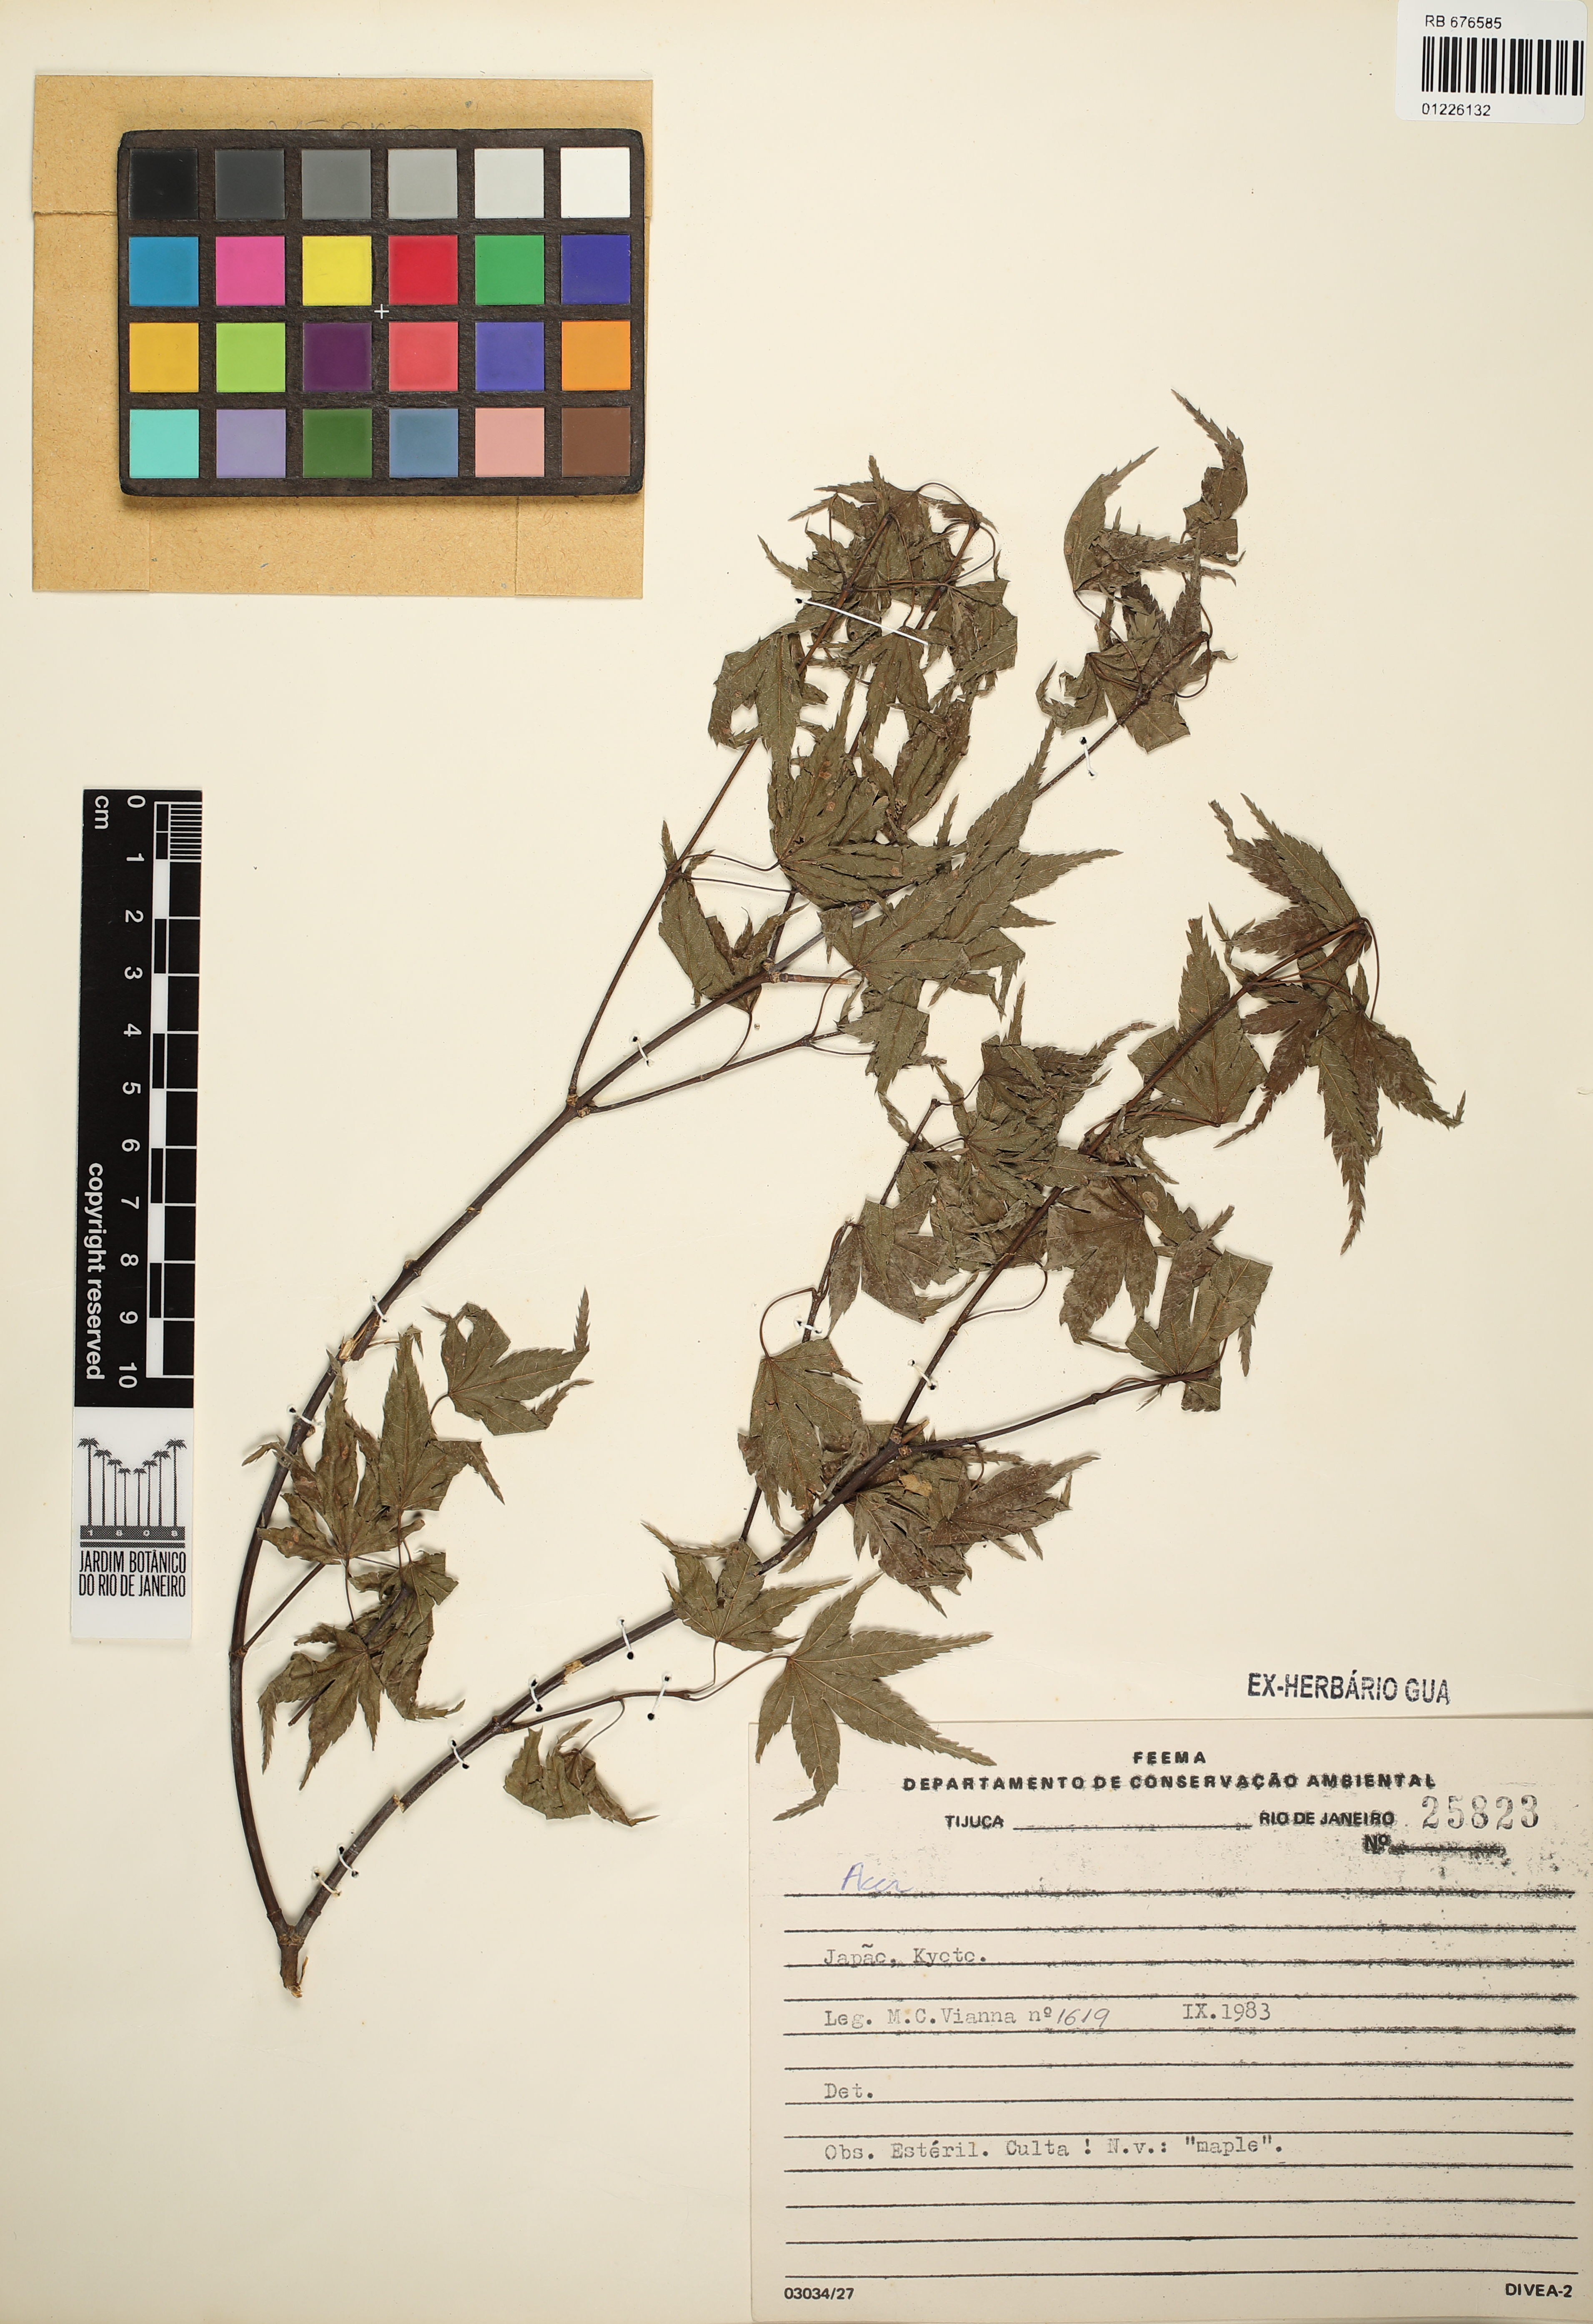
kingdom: Plantae
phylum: Tracheophyta
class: Magnoliopsida
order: Sapindales
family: Sapindaceae
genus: Acer
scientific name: Acer
